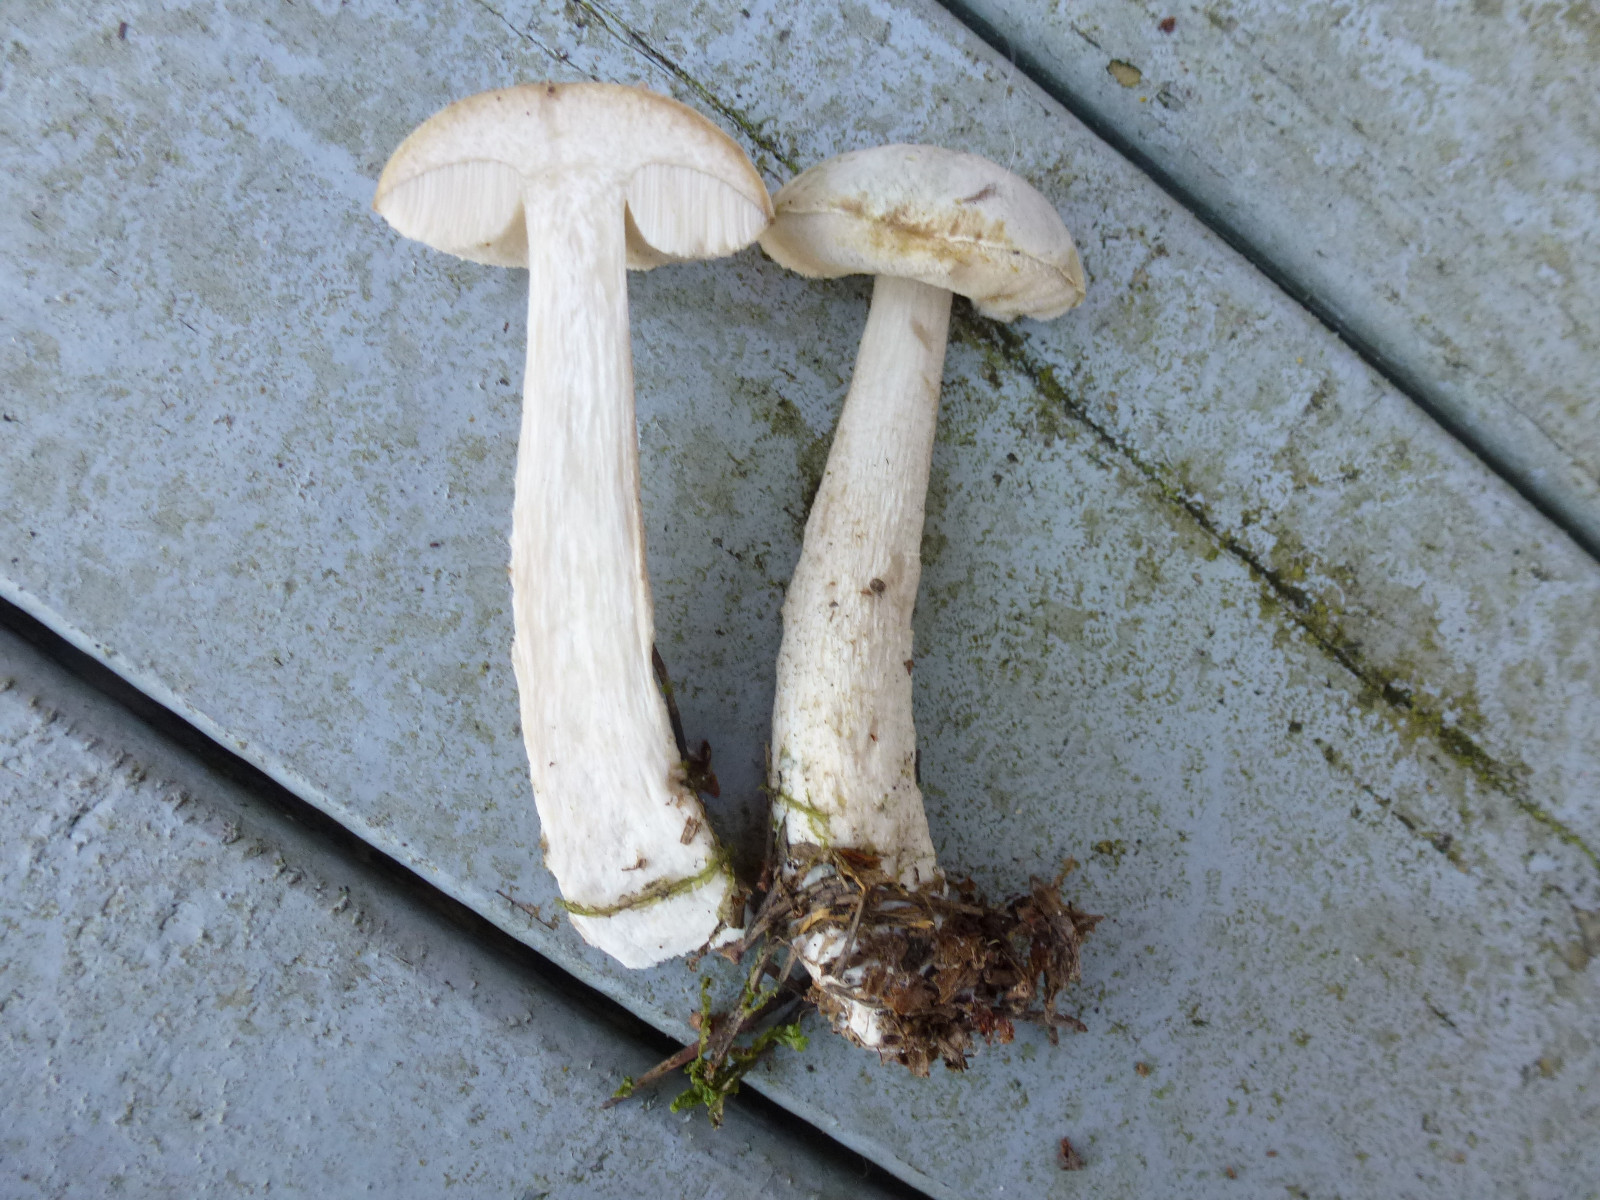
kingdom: Fungi
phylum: Basidiomycota
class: Agaricomycetes
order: Boletales
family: Boletaceae
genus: Leccinum
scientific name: Leccinum scabrum
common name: hvid skælrørhat
